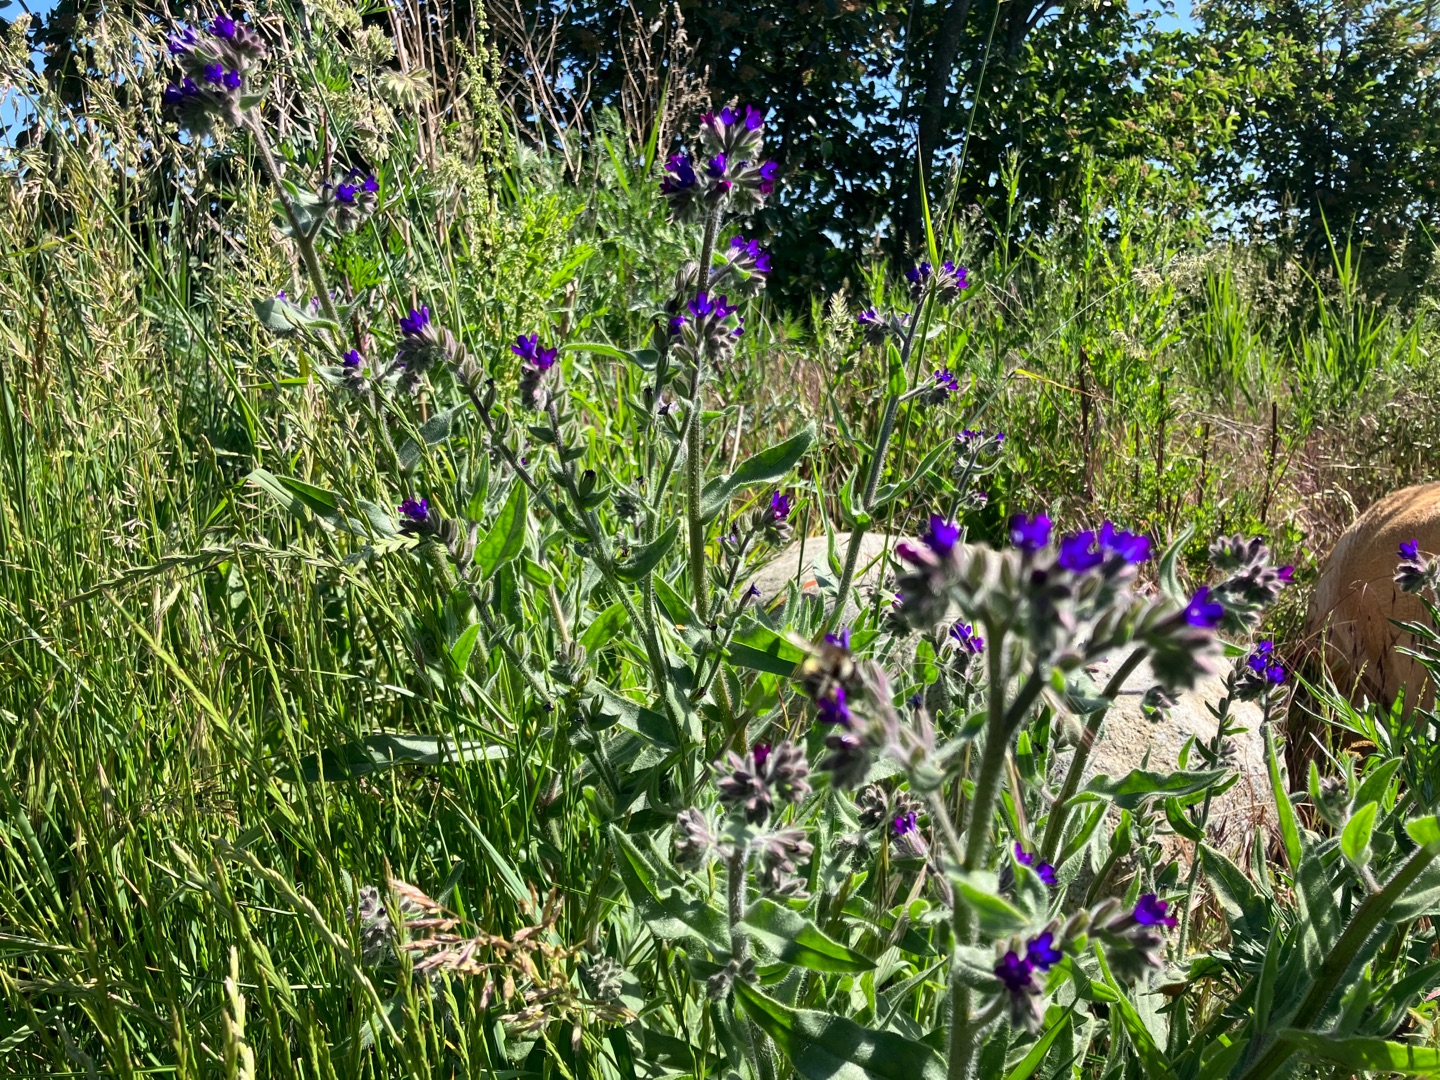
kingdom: Plantae
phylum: Tracheophyta
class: Magnoliopsida
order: Boraginales
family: Boraginaceae
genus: Anchusa
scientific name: Anchusa officinalis
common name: Læge-oksetunge
